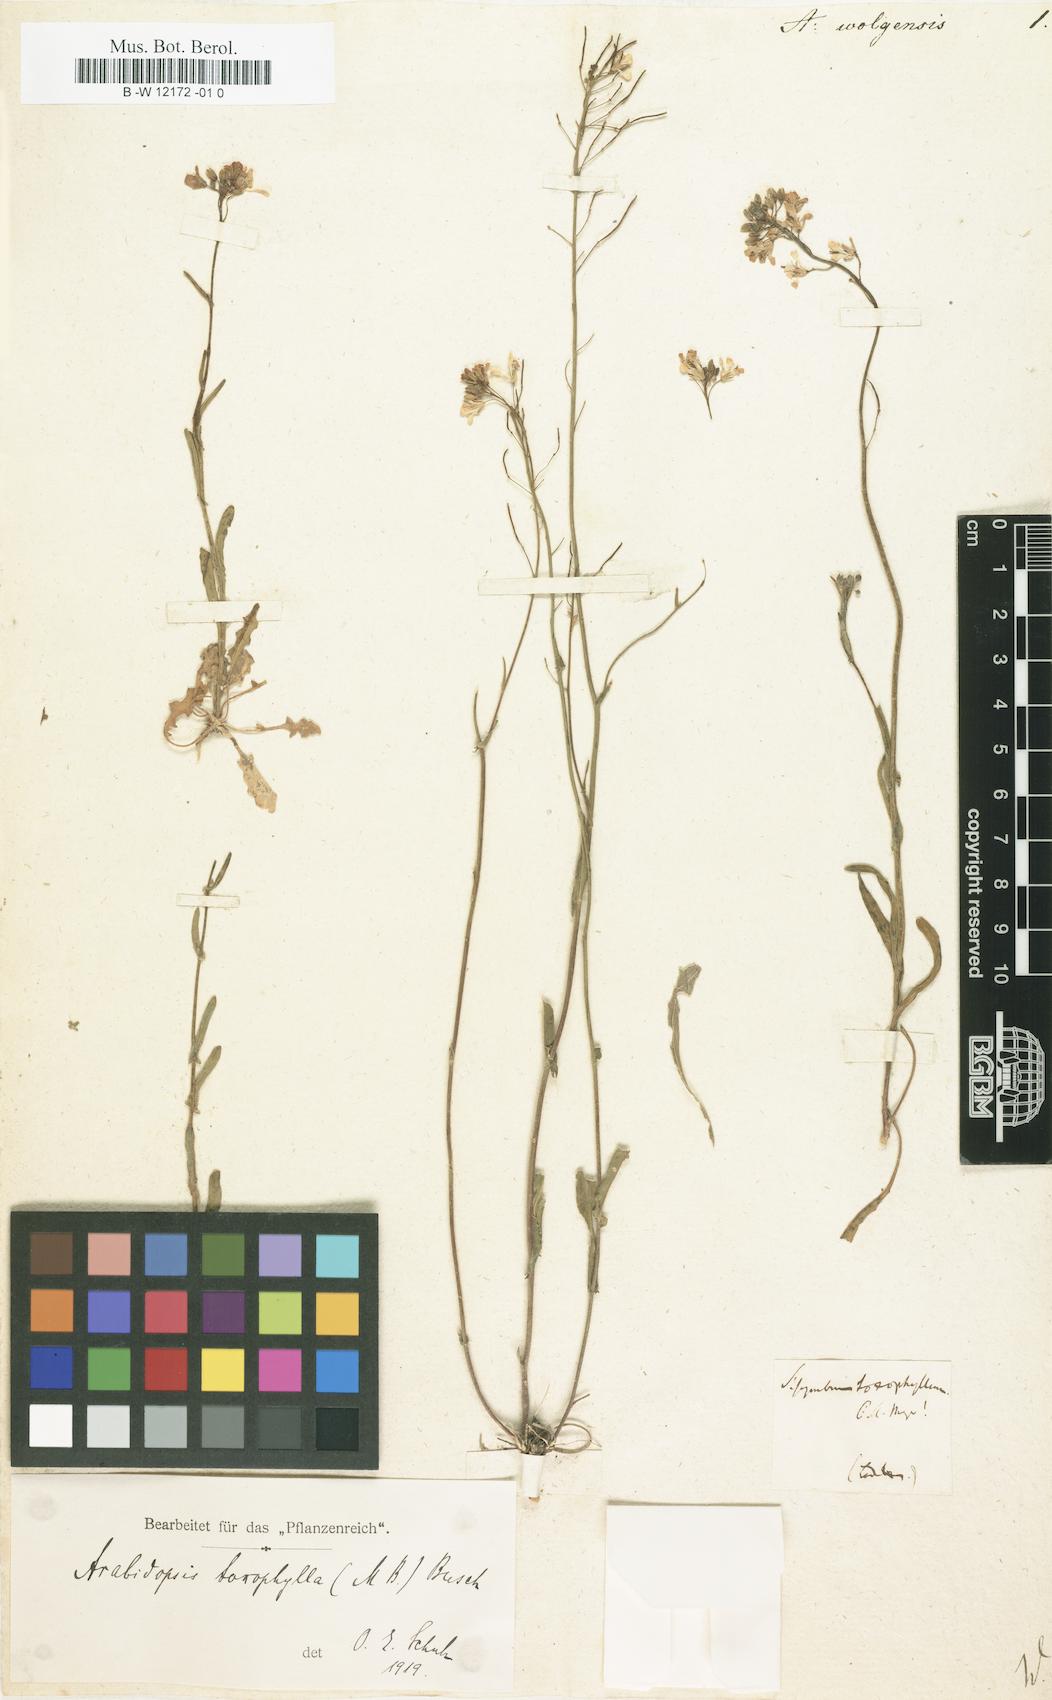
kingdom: Plantae
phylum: Tracheophyta
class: Magnoliopsida
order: Brassicales
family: Brassicaceae
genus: Pseudoarabidopsis
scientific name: Pseudoarabidopsis toxophylla
